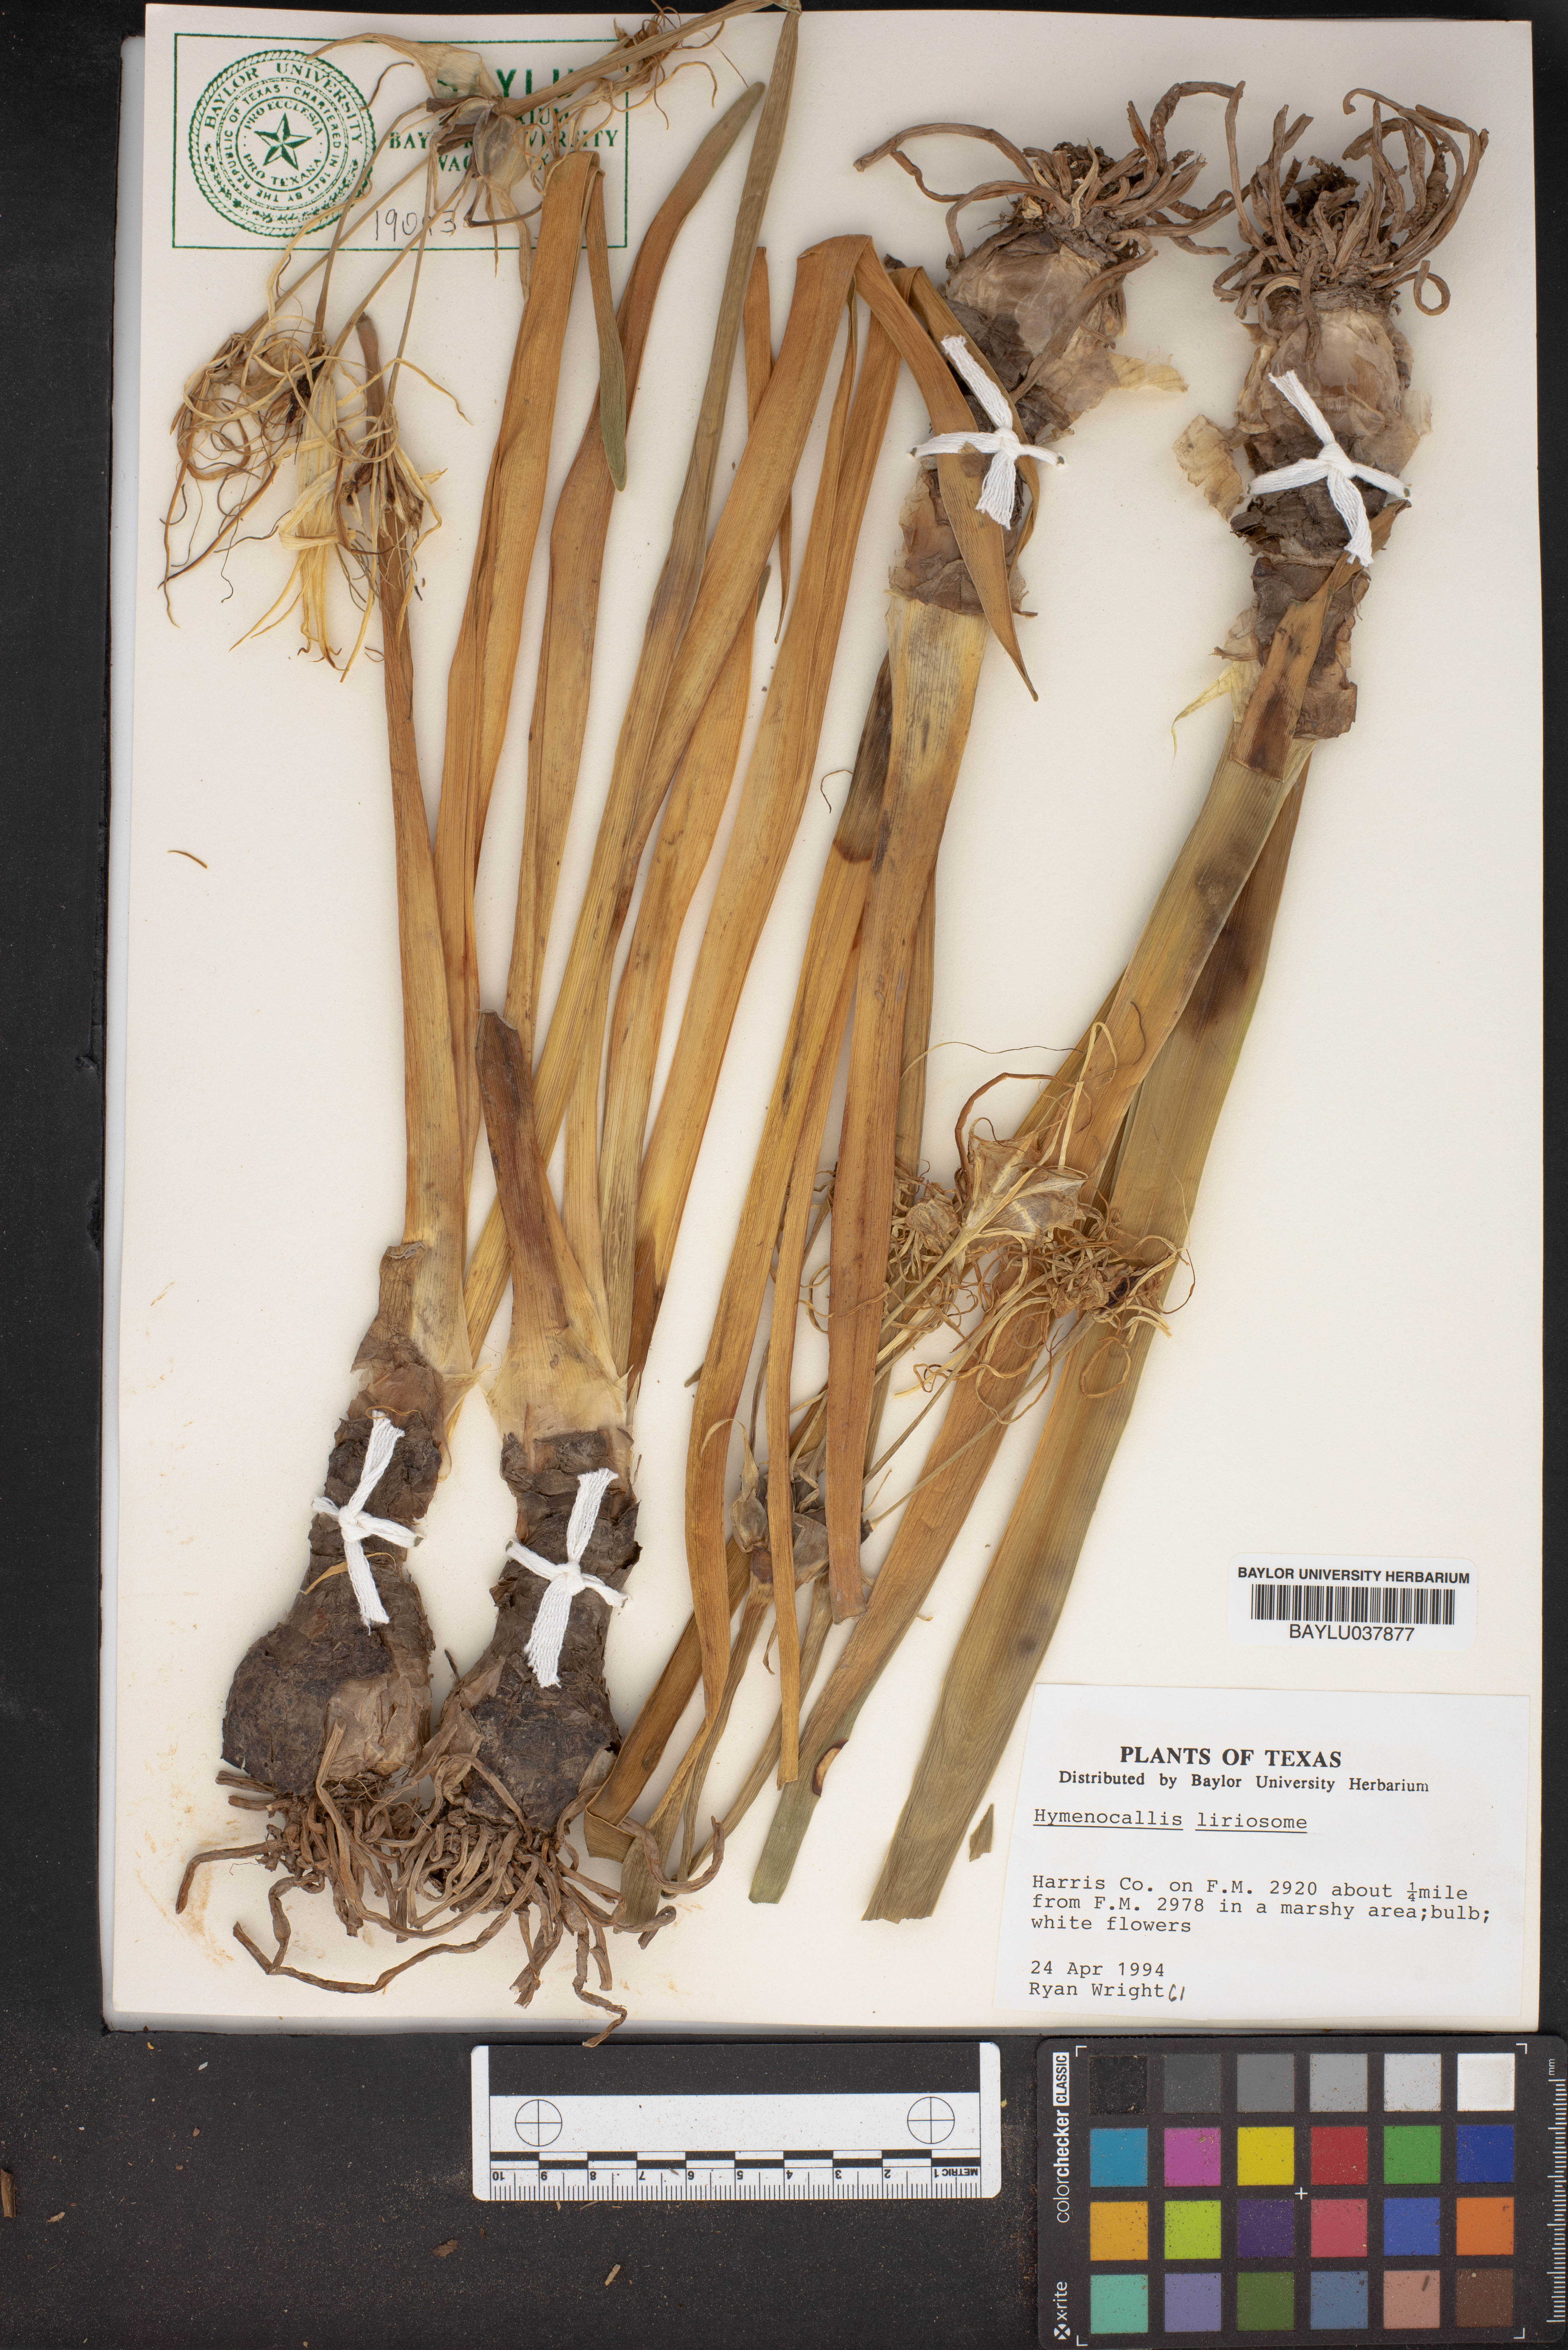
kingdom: Plantae
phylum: Tracheophyta
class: Liliopsida
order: Asparagales
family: Amaryllidaceae
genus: Hymenocallis
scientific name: Hymenocallis liriosme
